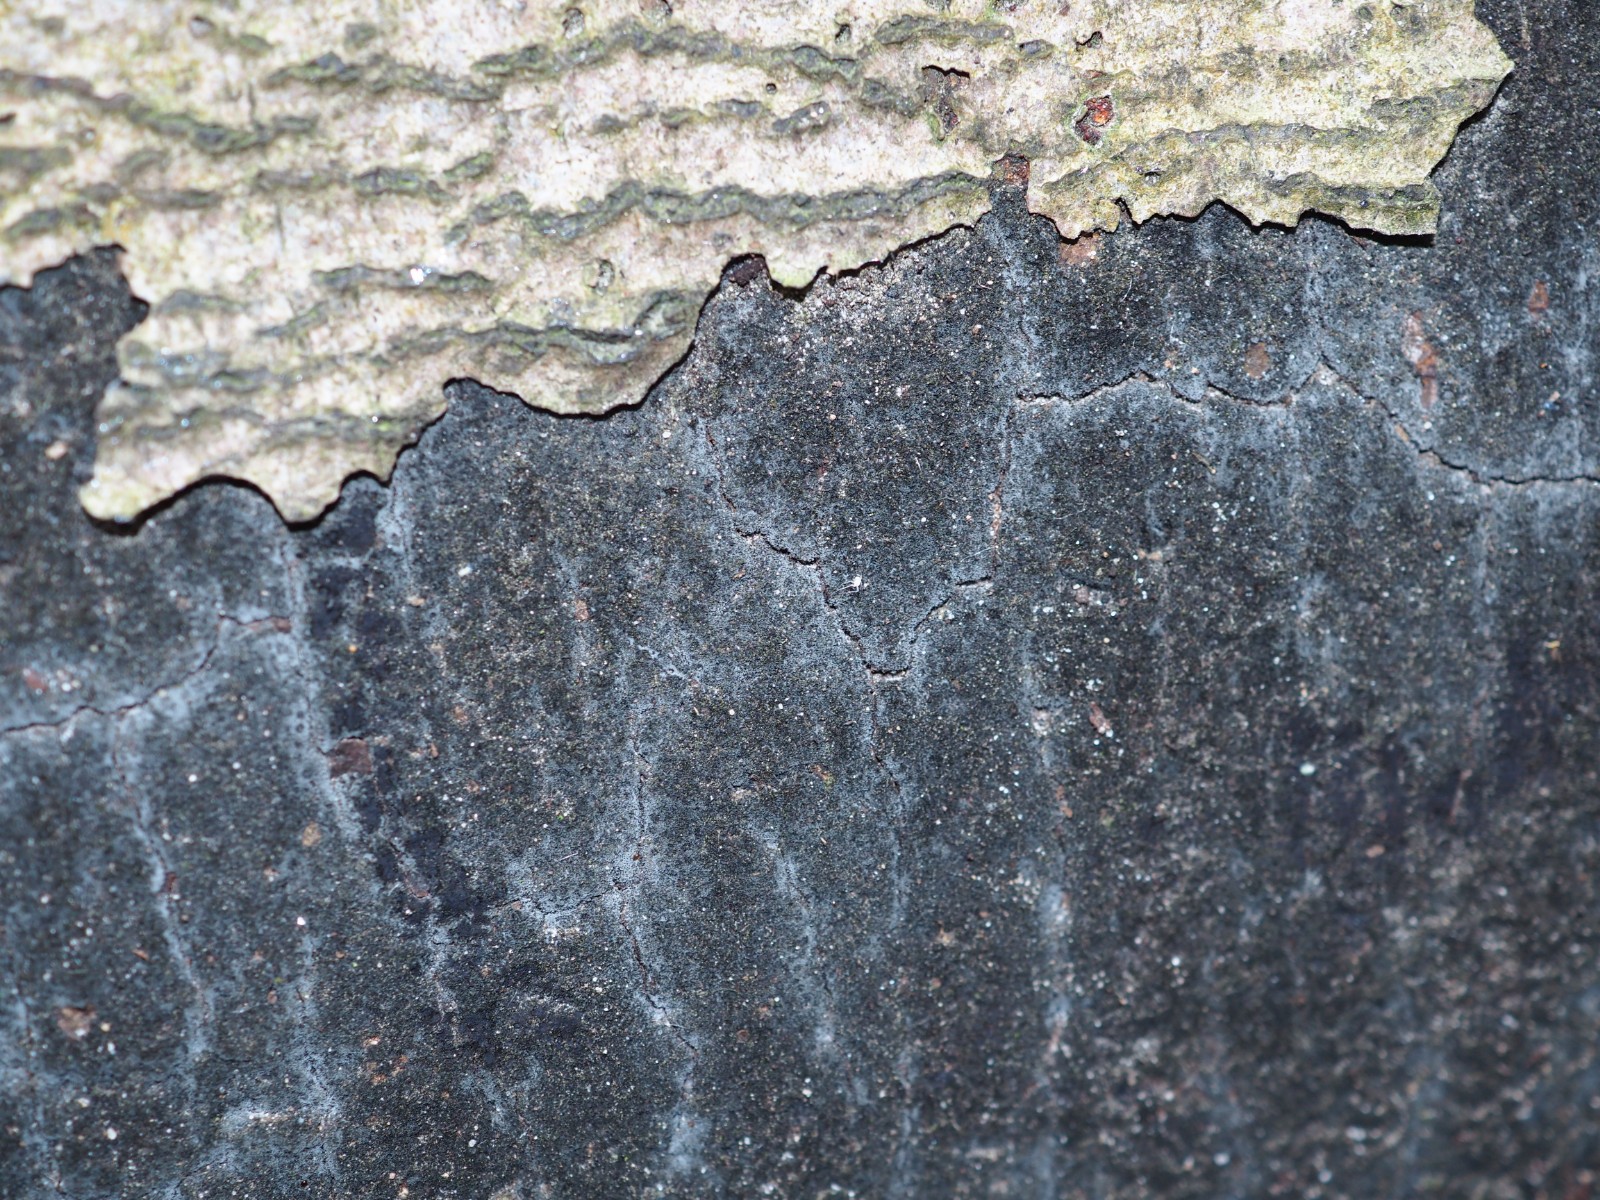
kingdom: Fungi
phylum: Ascomycota
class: Sordariomycetes
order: Xylariales
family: Diatrypaceae
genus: Eutypa
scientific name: Eutypa spinosa
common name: grov kulskorpe
